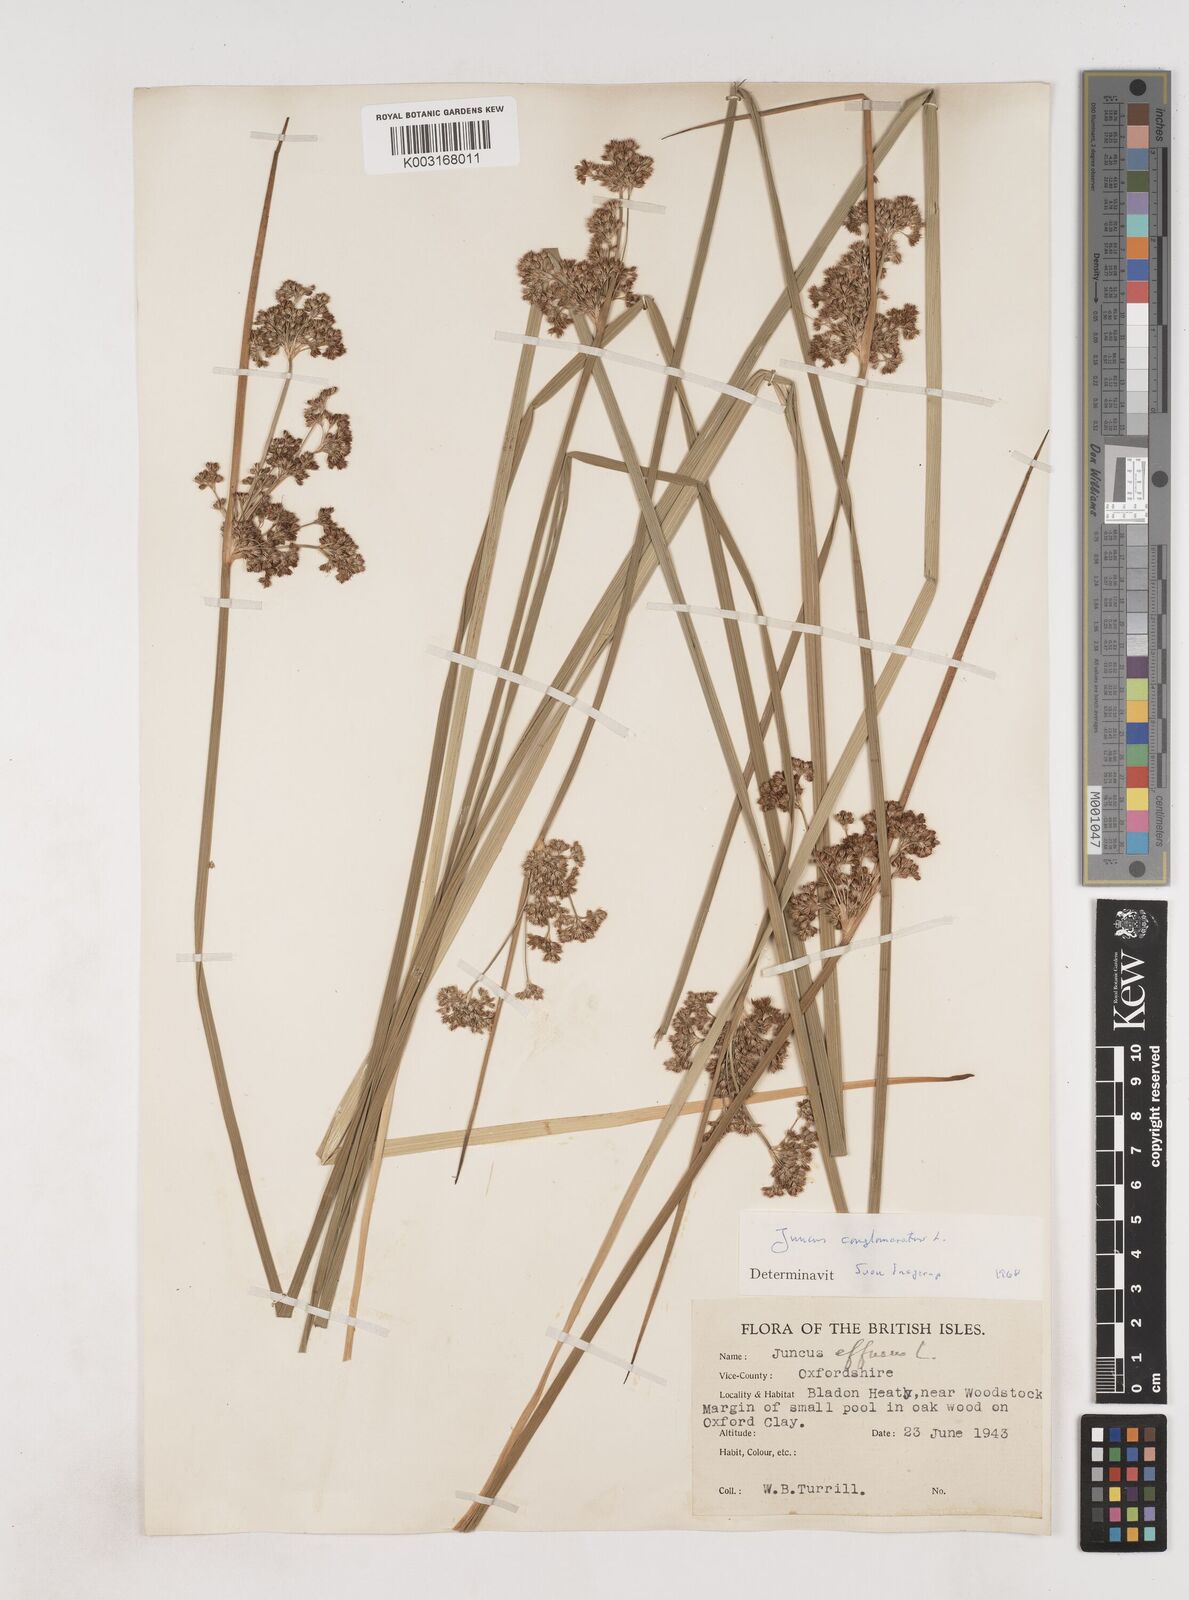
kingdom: Plantae
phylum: Tracheophyta
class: Liliopsida
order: Poales
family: Juncaceae
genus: Juncus
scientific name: Juncus conglomeratus
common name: Compact rush
